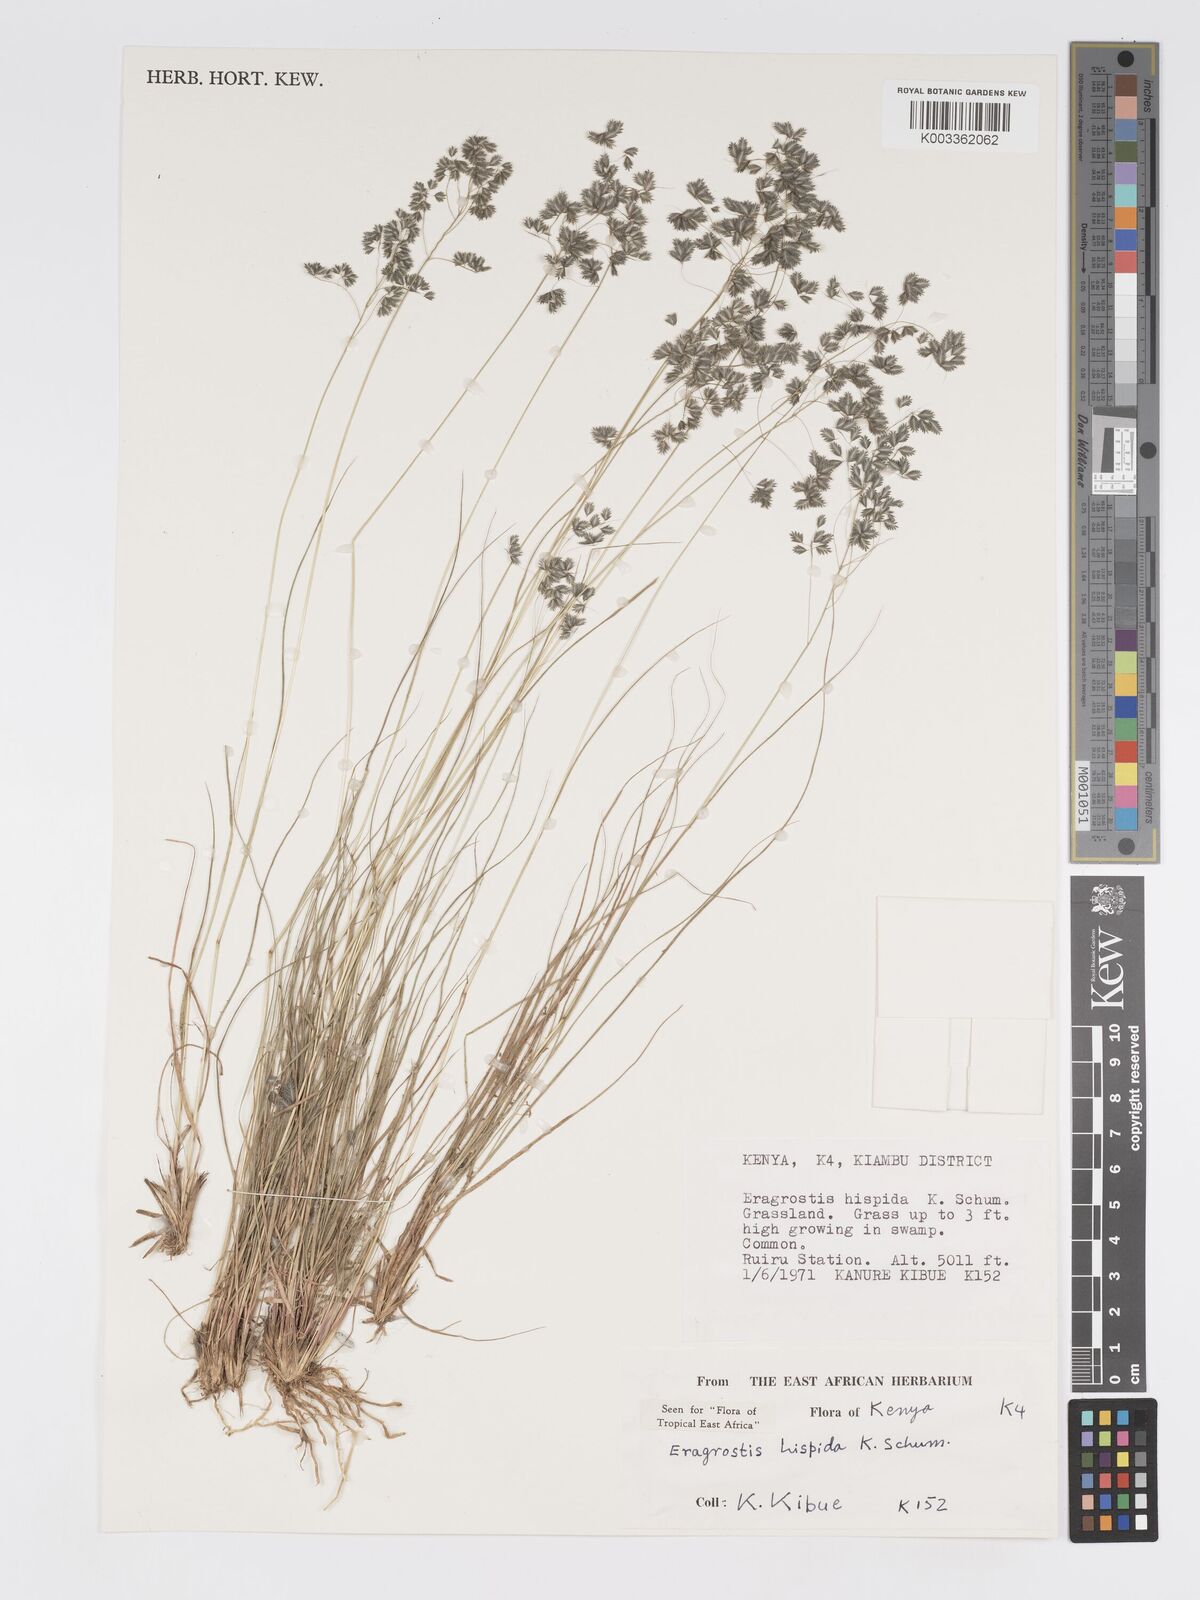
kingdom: Plantae
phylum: Tracheophyta
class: Liliopsida
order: Poales
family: Poaceae
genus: Eragrostis
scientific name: Eragrostis hispida
